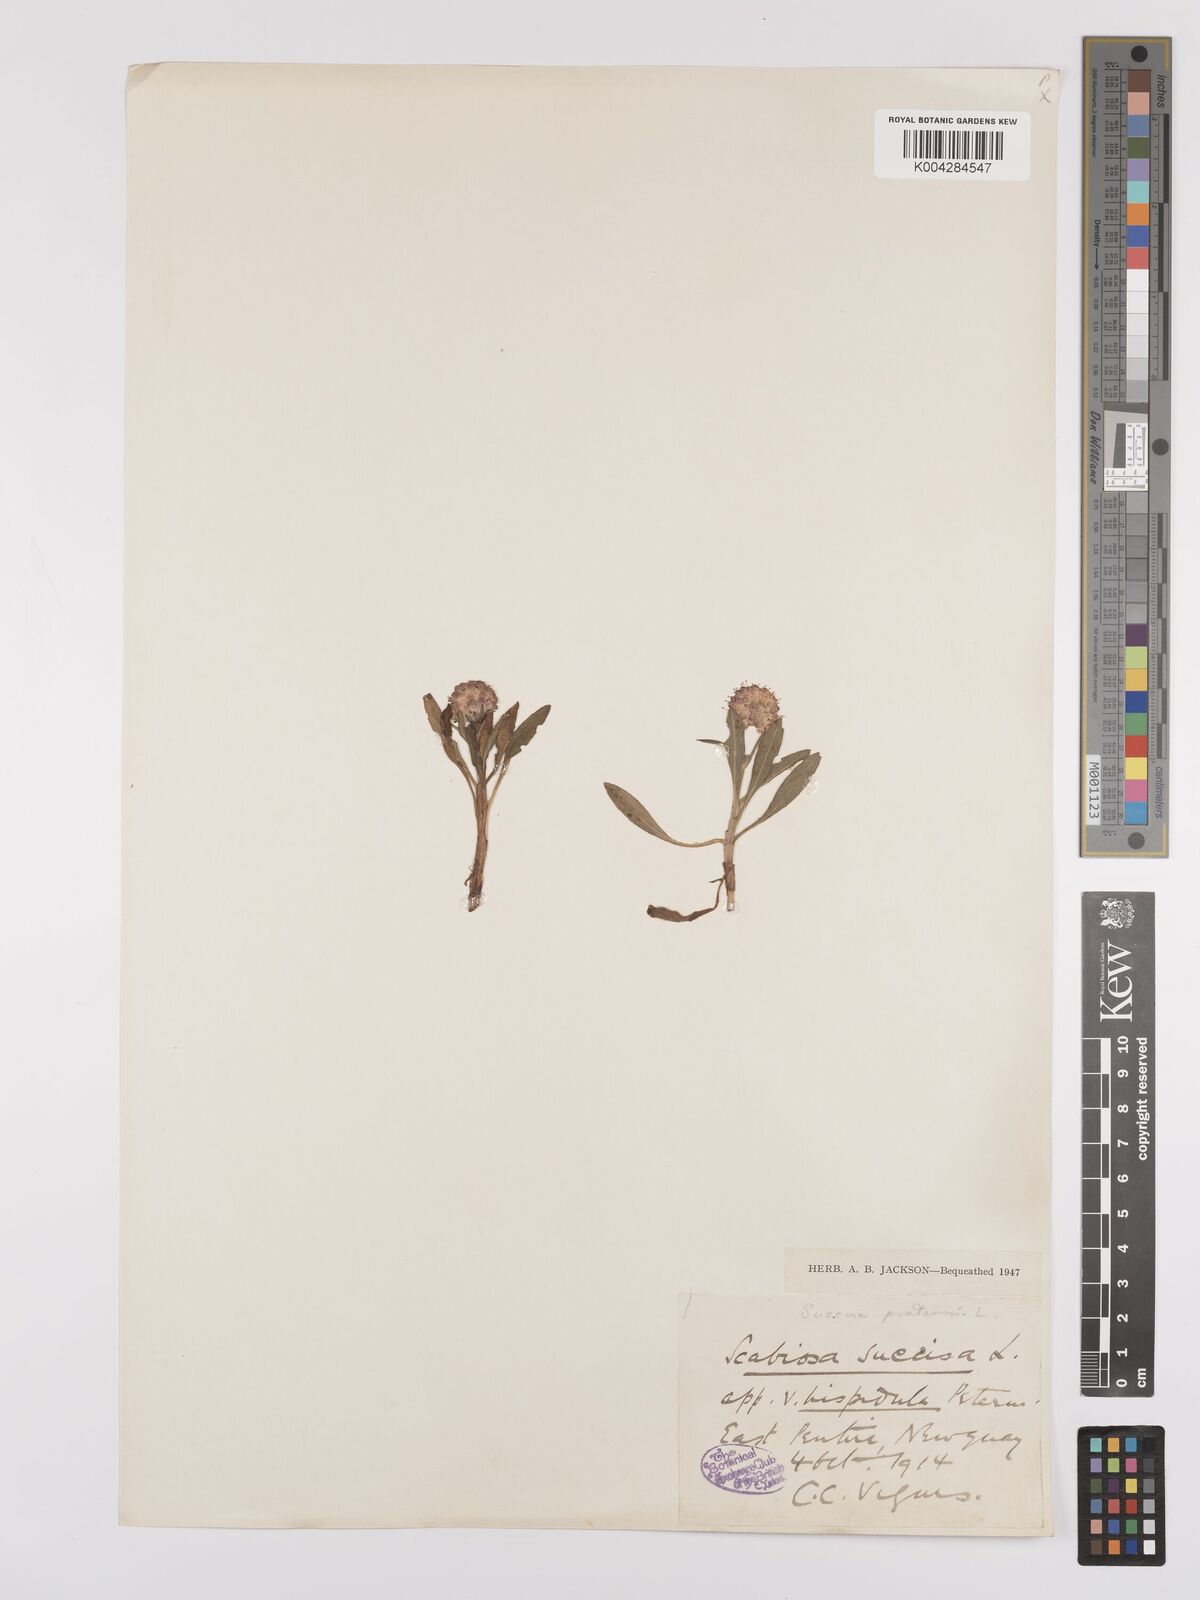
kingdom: Plantae
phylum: Tracheophyta
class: Magnoliopsida
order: Dipsacales
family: Caprifoliaceae
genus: Succisa
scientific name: Succisa pratensis
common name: Devil's-bit
